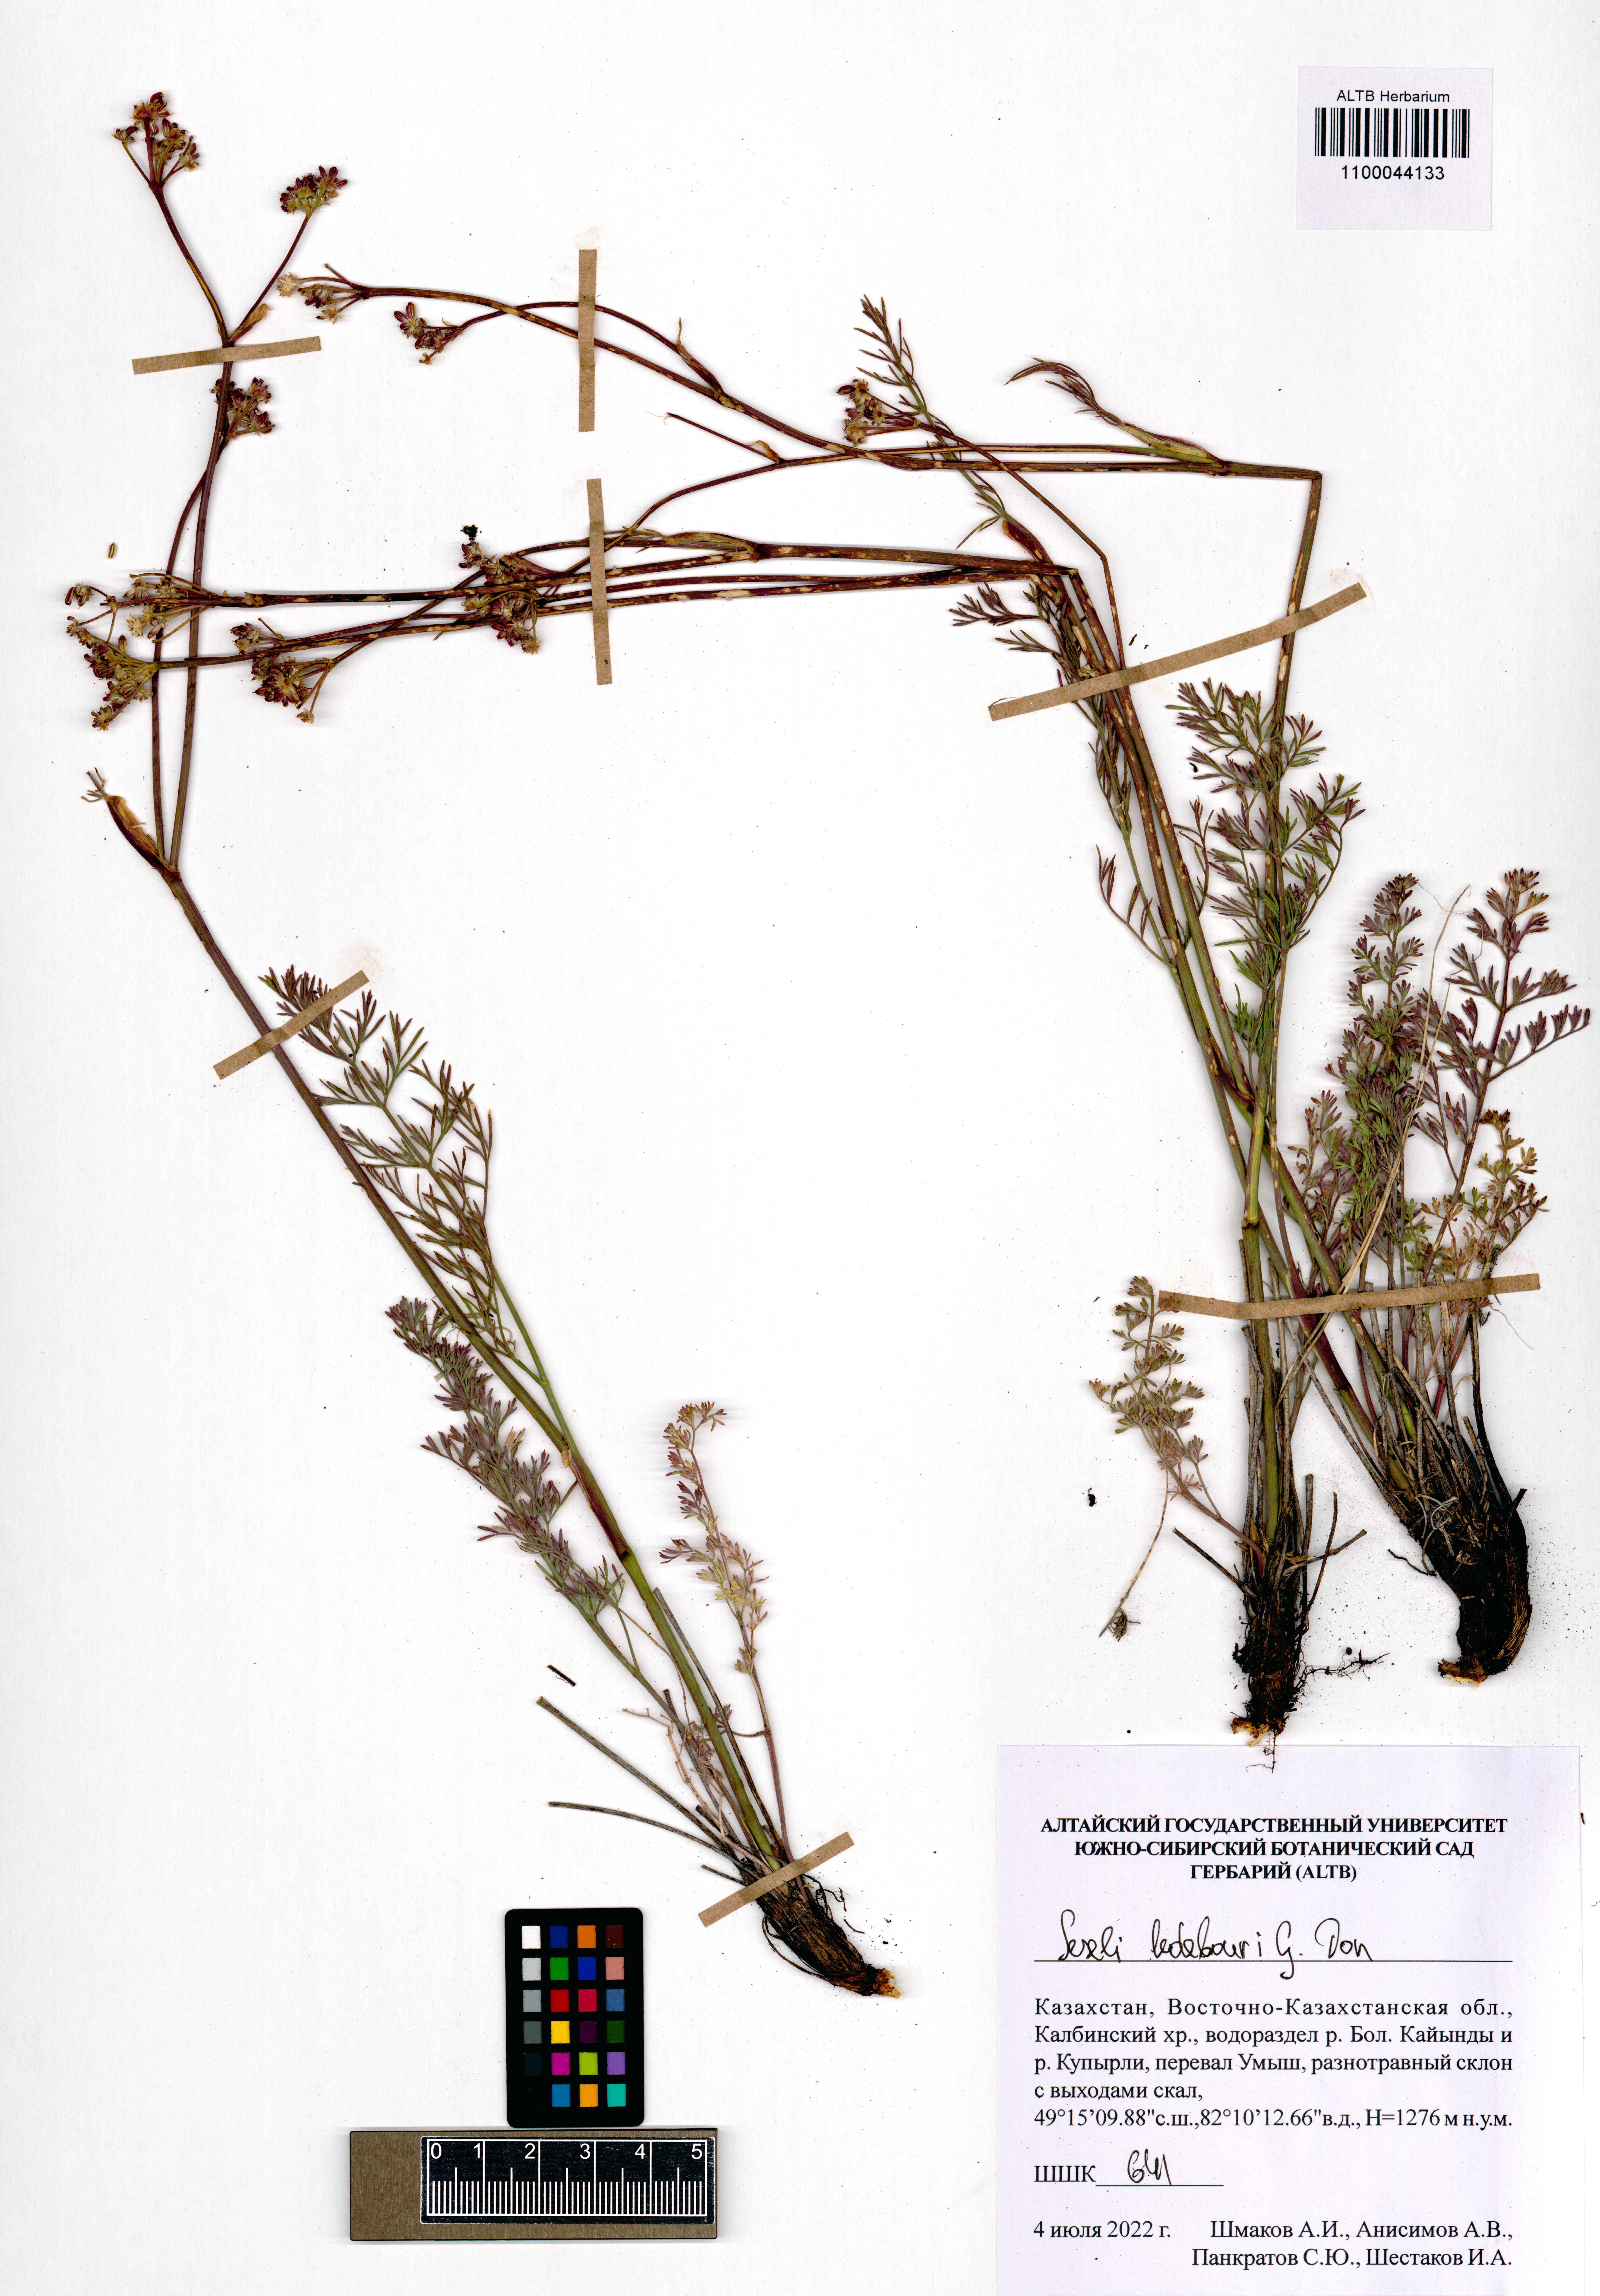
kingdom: Plantae
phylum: Tracheophyta
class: Magnoliopsida
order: Apiales
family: Apiaceae
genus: Seseli
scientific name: Seseli ledebourii
